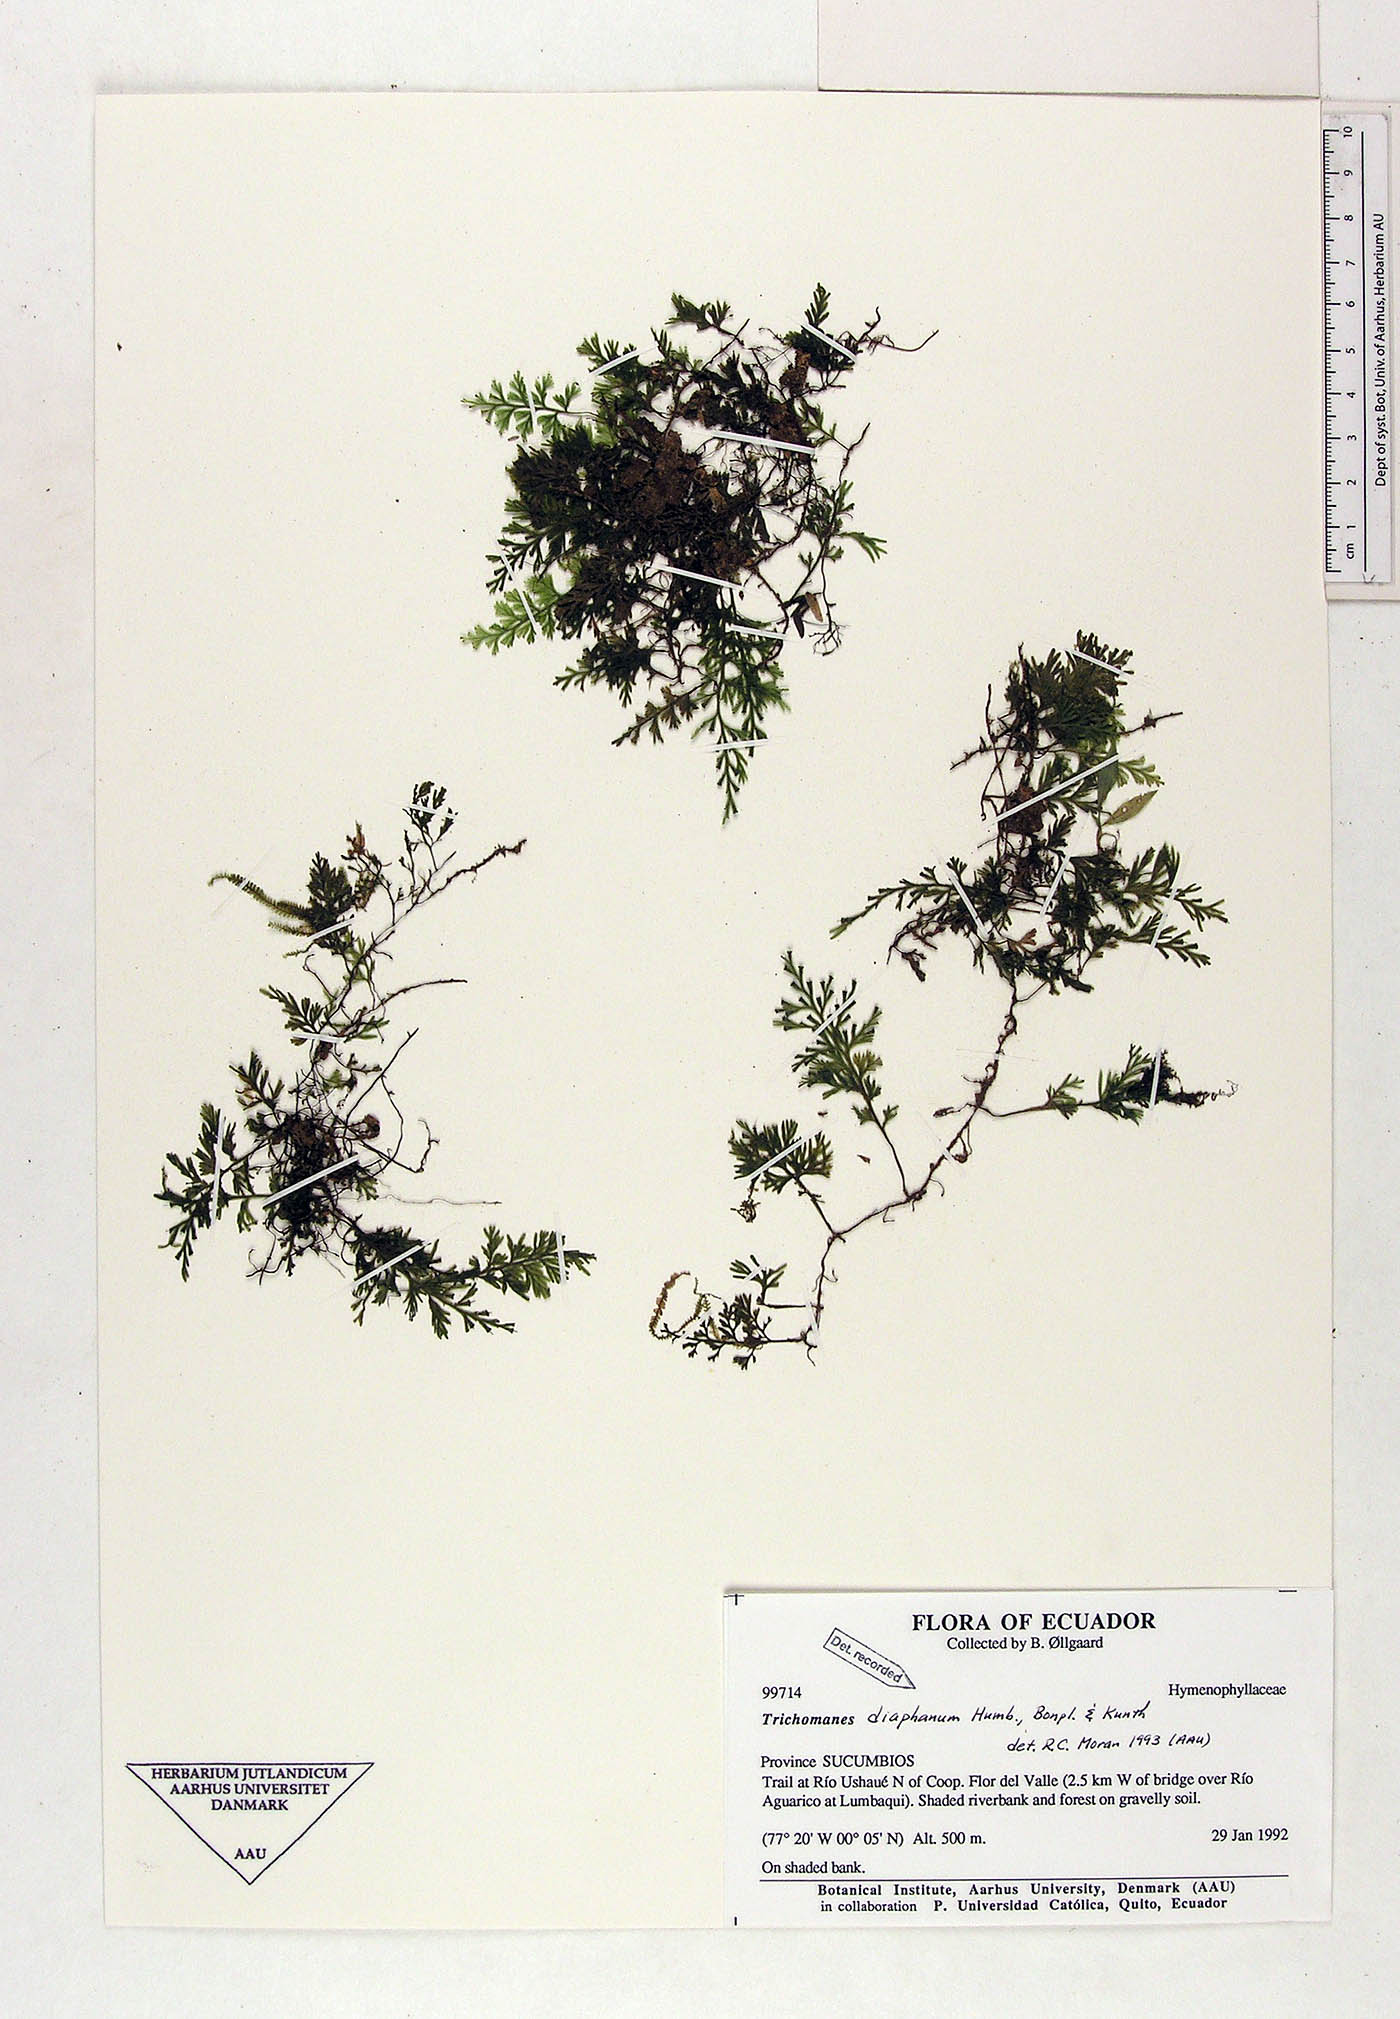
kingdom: Plantae
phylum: Tracheophyta
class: Polypodiopsida
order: Hymenophyllales
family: Hymenophyllaceae
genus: Polyphlebium
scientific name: Polyphlebium diaphanum
